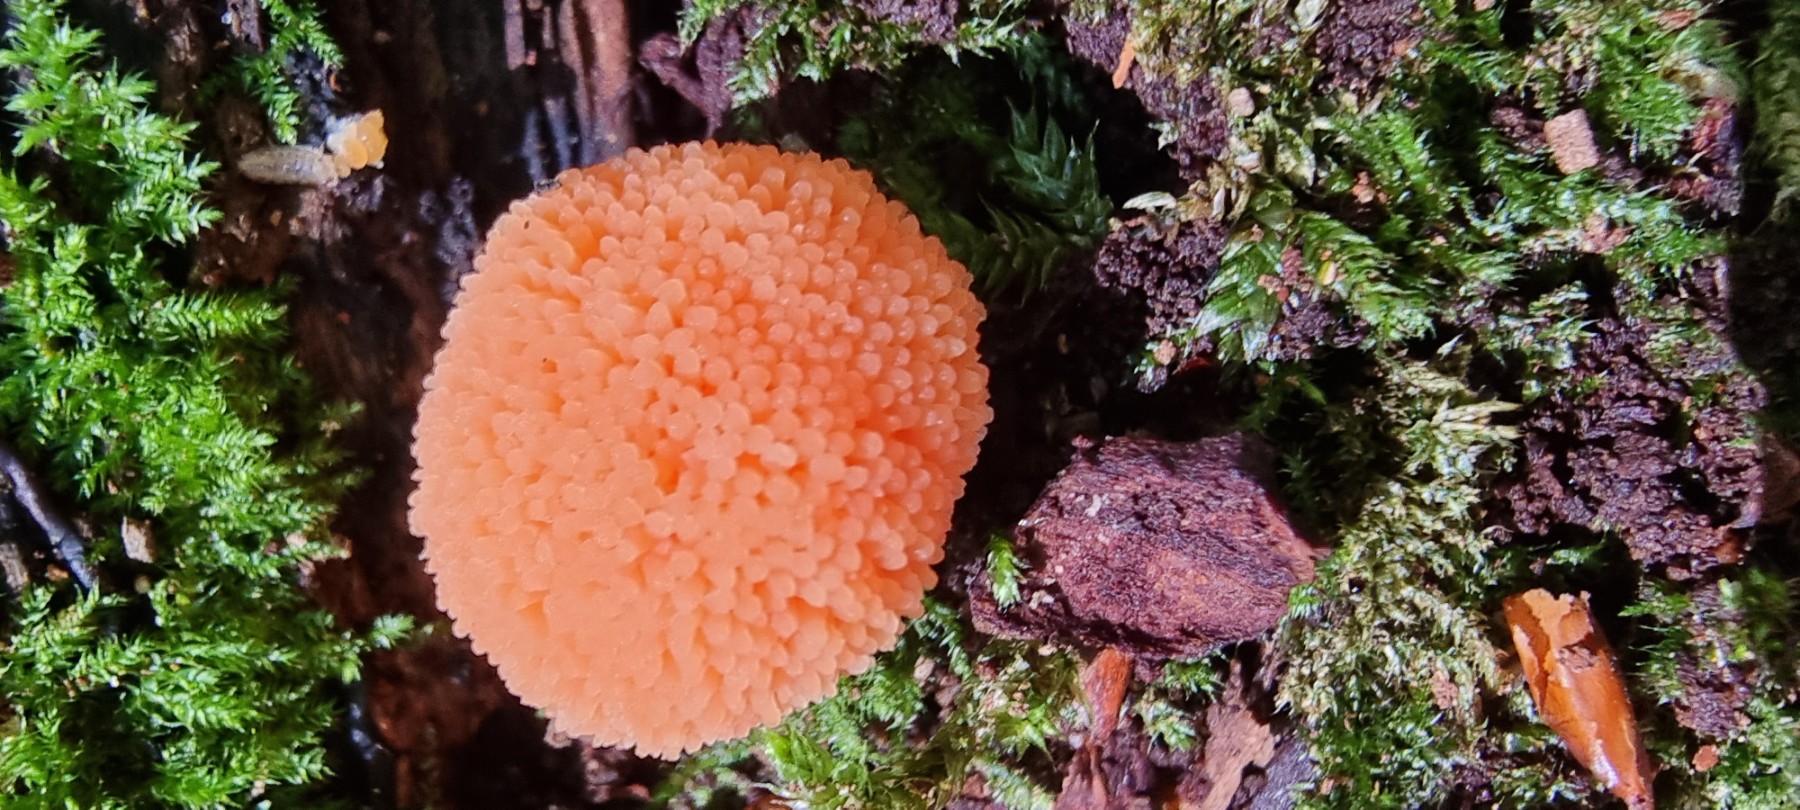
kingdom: Protozoa
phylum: Mycetozoa
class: Myxomycetes
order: Cribrariales
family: Tubiferaceae
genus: Tubifera
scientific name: Tubifera ferruginosa
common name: kanel-støvrør
